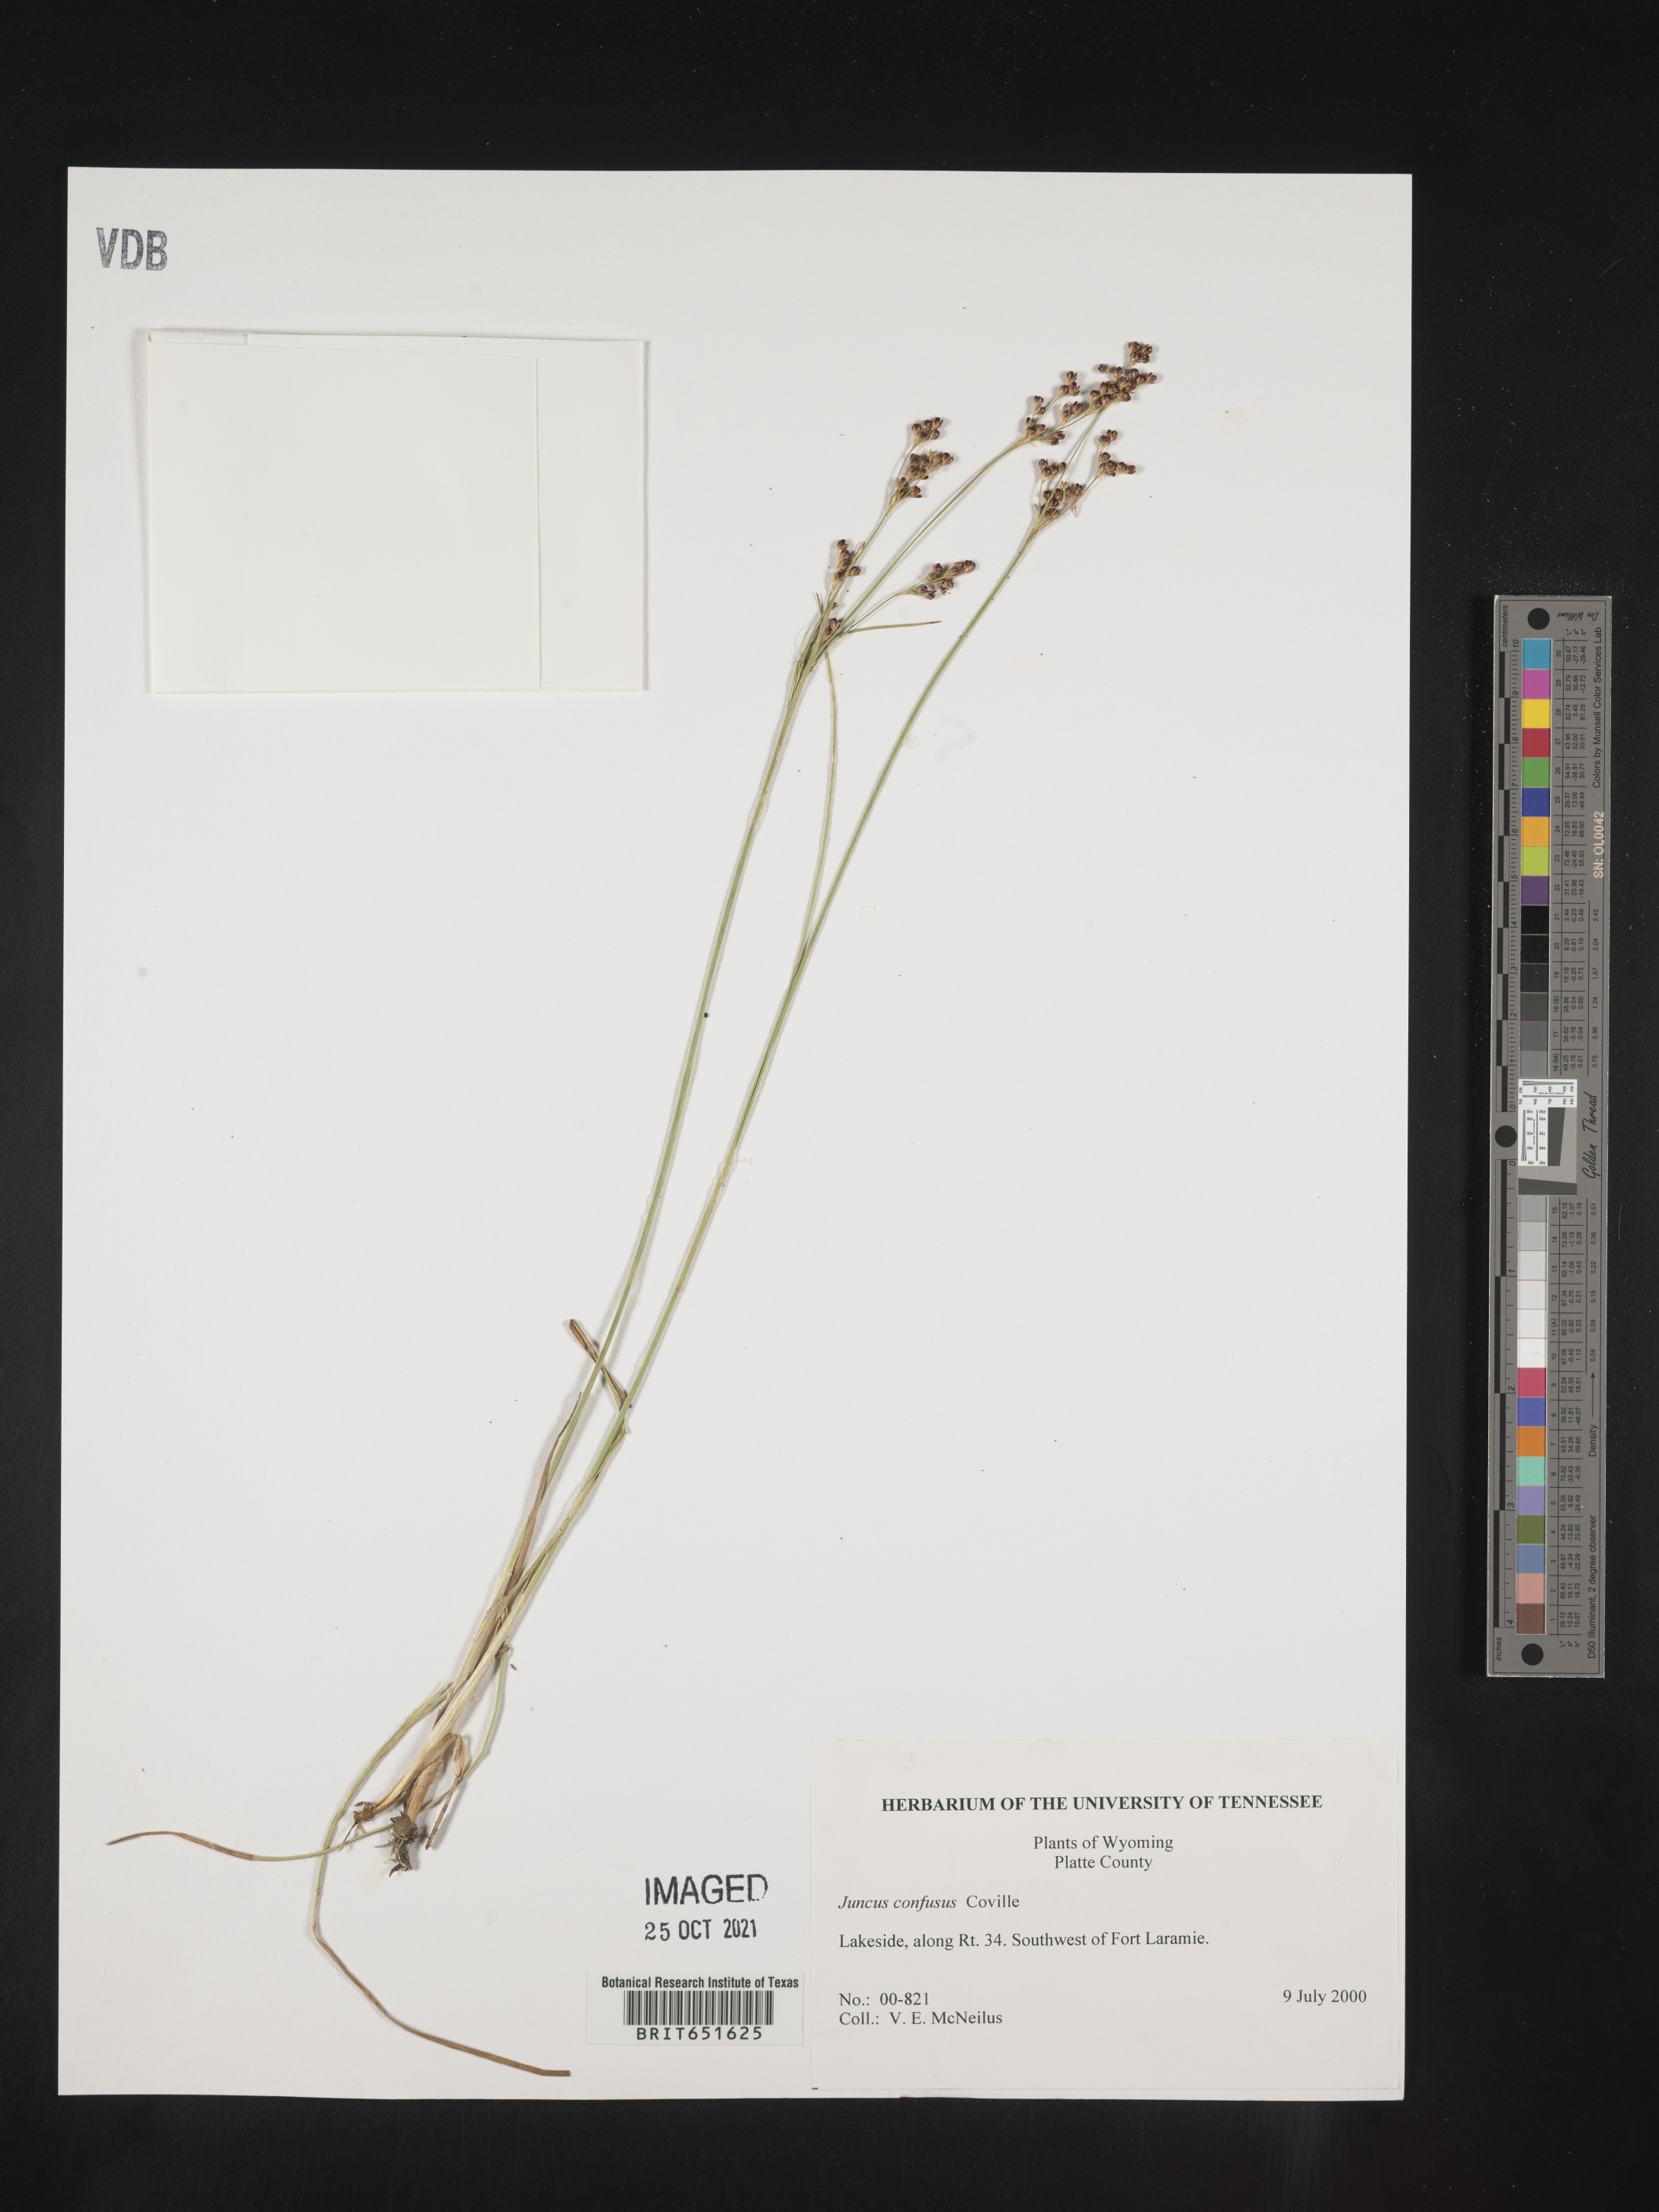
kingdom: Plantae
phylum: Tracheophyta
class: Liliopsida
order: Poales
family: Juncaceae
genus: Juncus
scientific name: Juncus confusus
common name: Colorado rush
